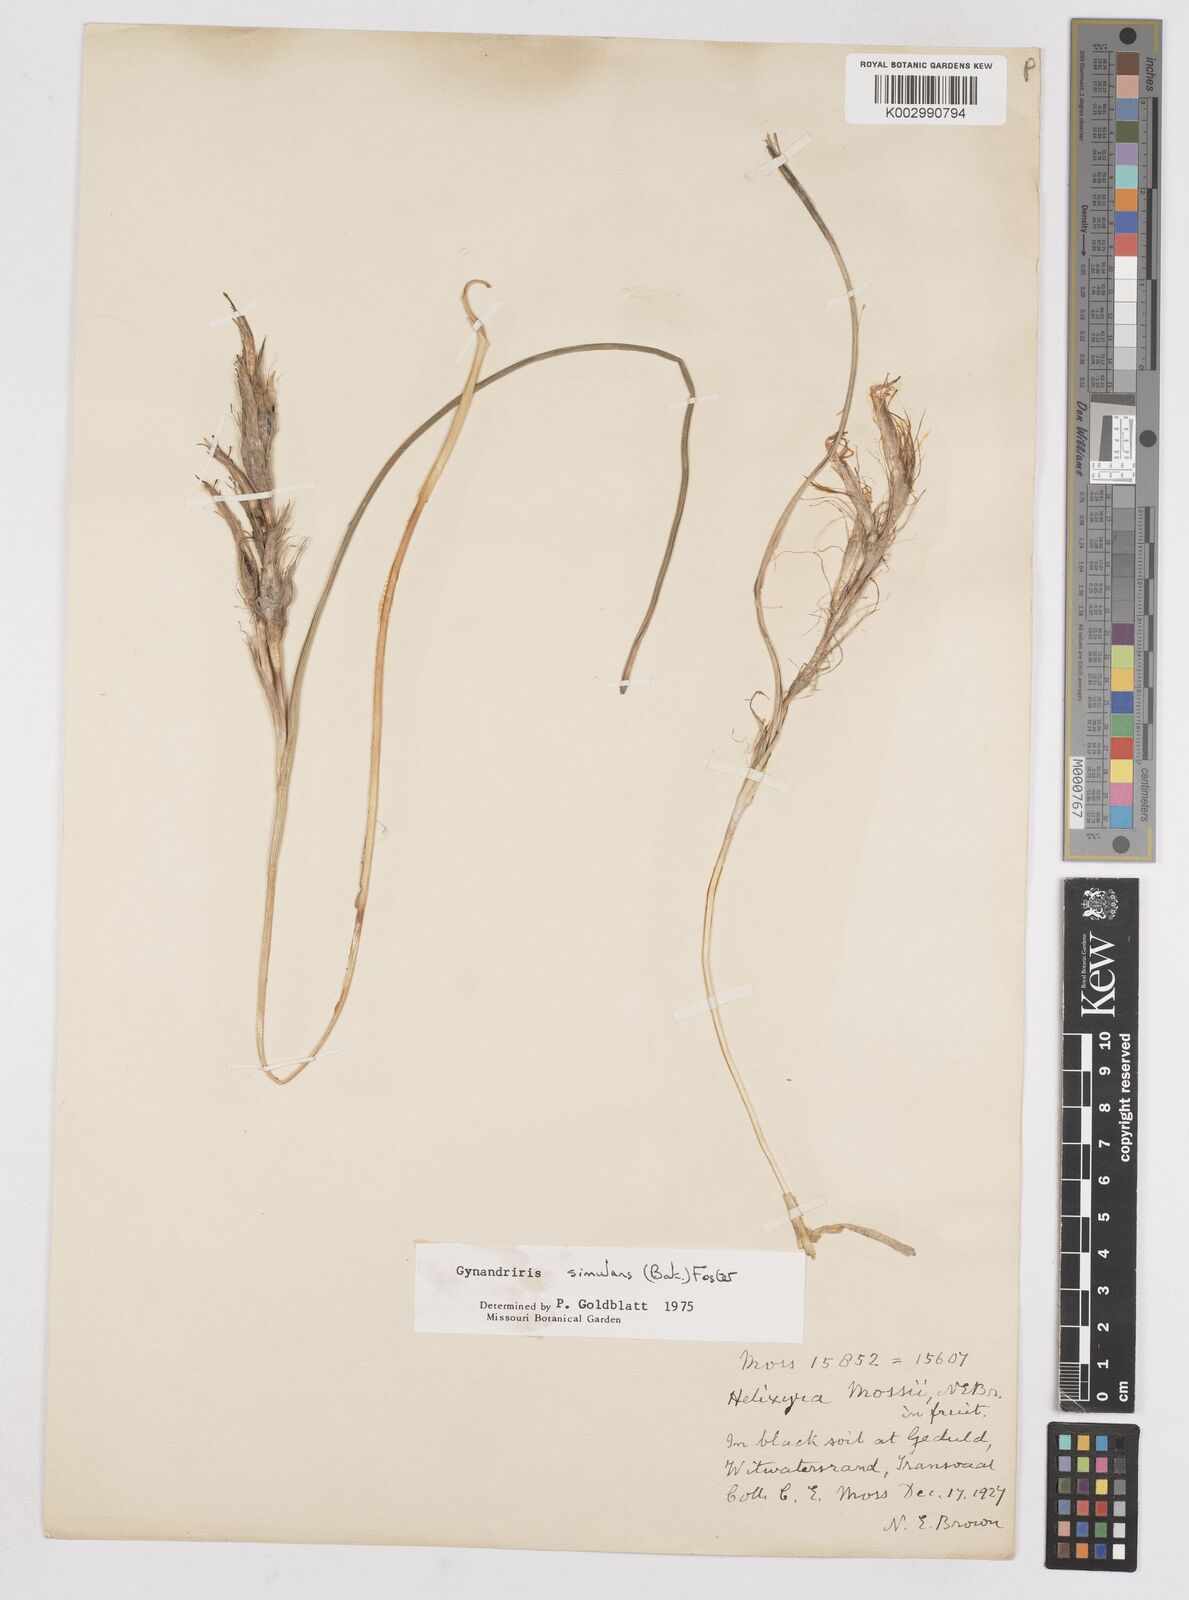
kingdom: Plantae
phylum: Tracheophyta
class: Liliopsida
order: Asparagales
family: Iridaceae
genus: Moraea
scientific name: Moraea simulans
